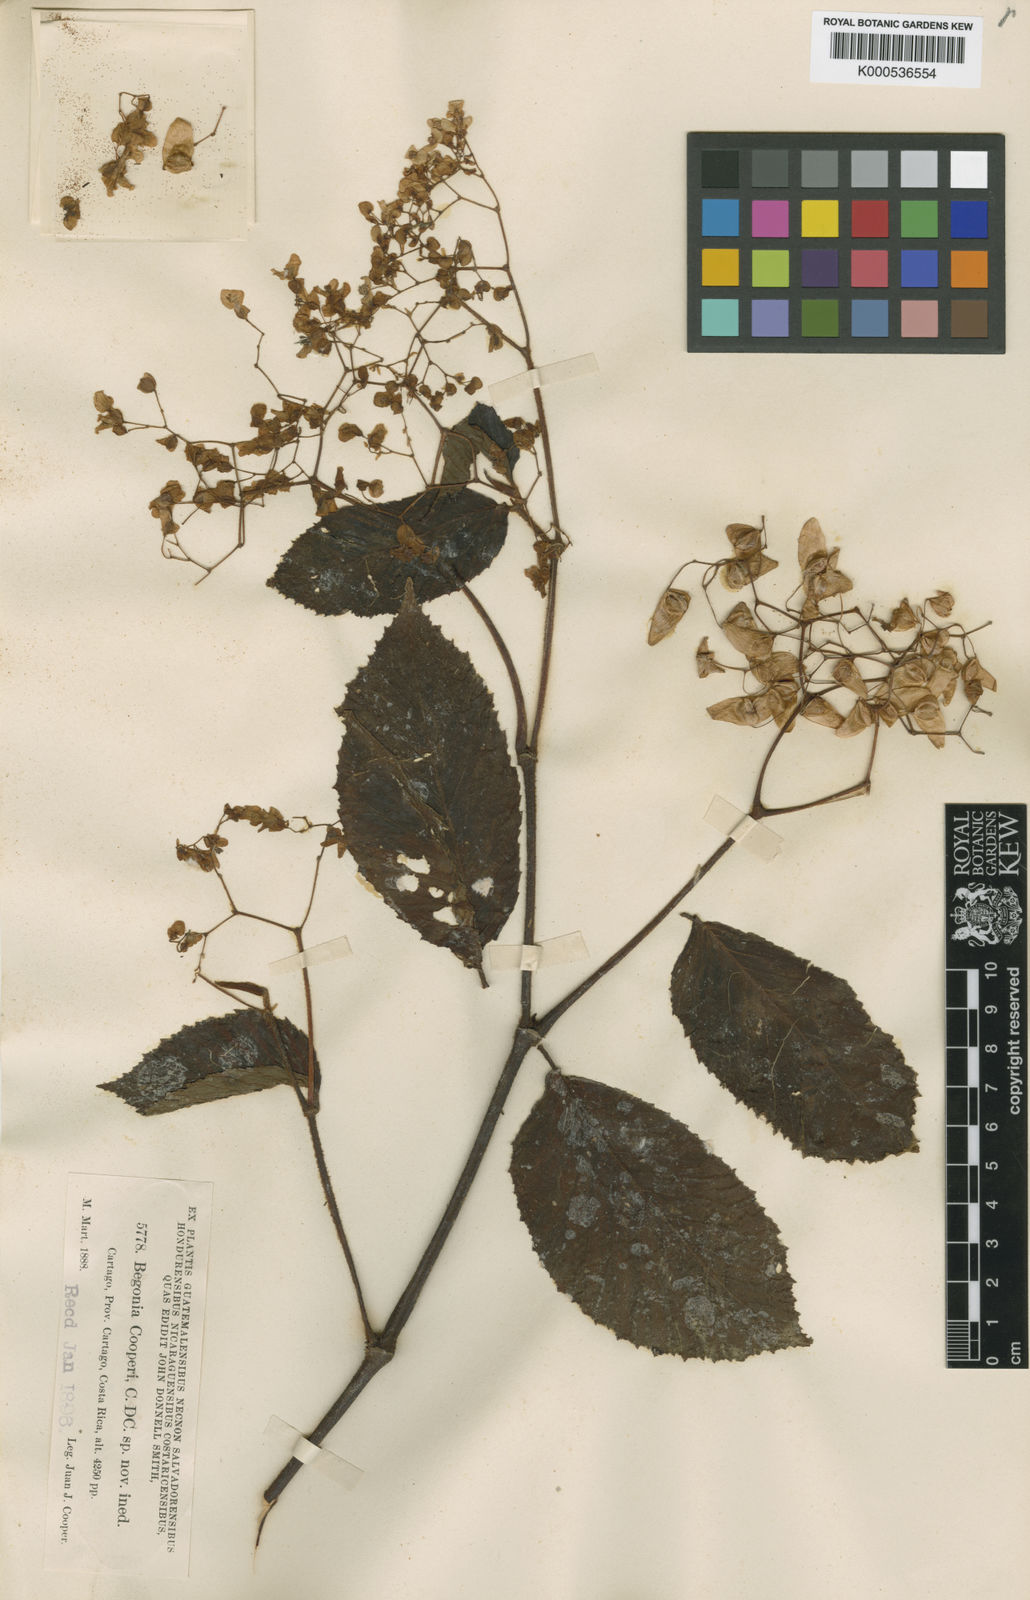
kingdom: Plantae
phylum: Tracheophyta
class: Magnoliopsida
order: Cucurbitales
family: Begoniaceae
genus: Begonia
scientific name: Begonia cooperi
